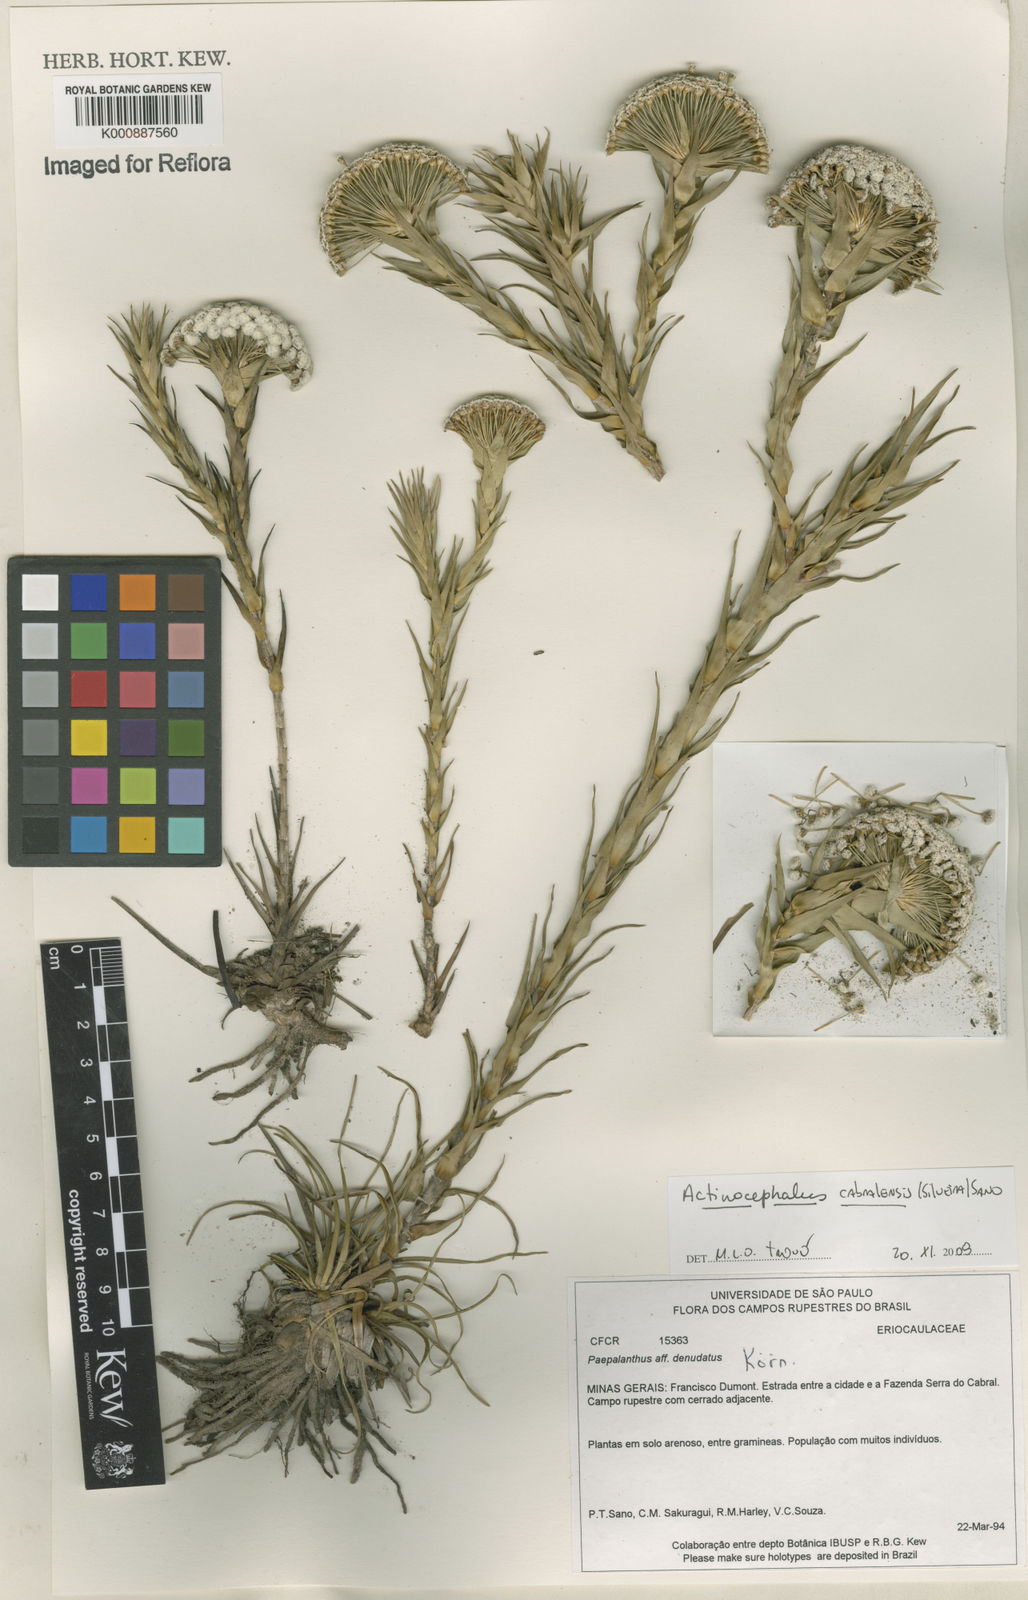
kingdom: Plantae
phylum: Tracheophyta
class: Liliopsida
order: Poales
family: Eriocaulaceae
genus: Paepalanthus
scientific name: Paepalanthus cabralensis
